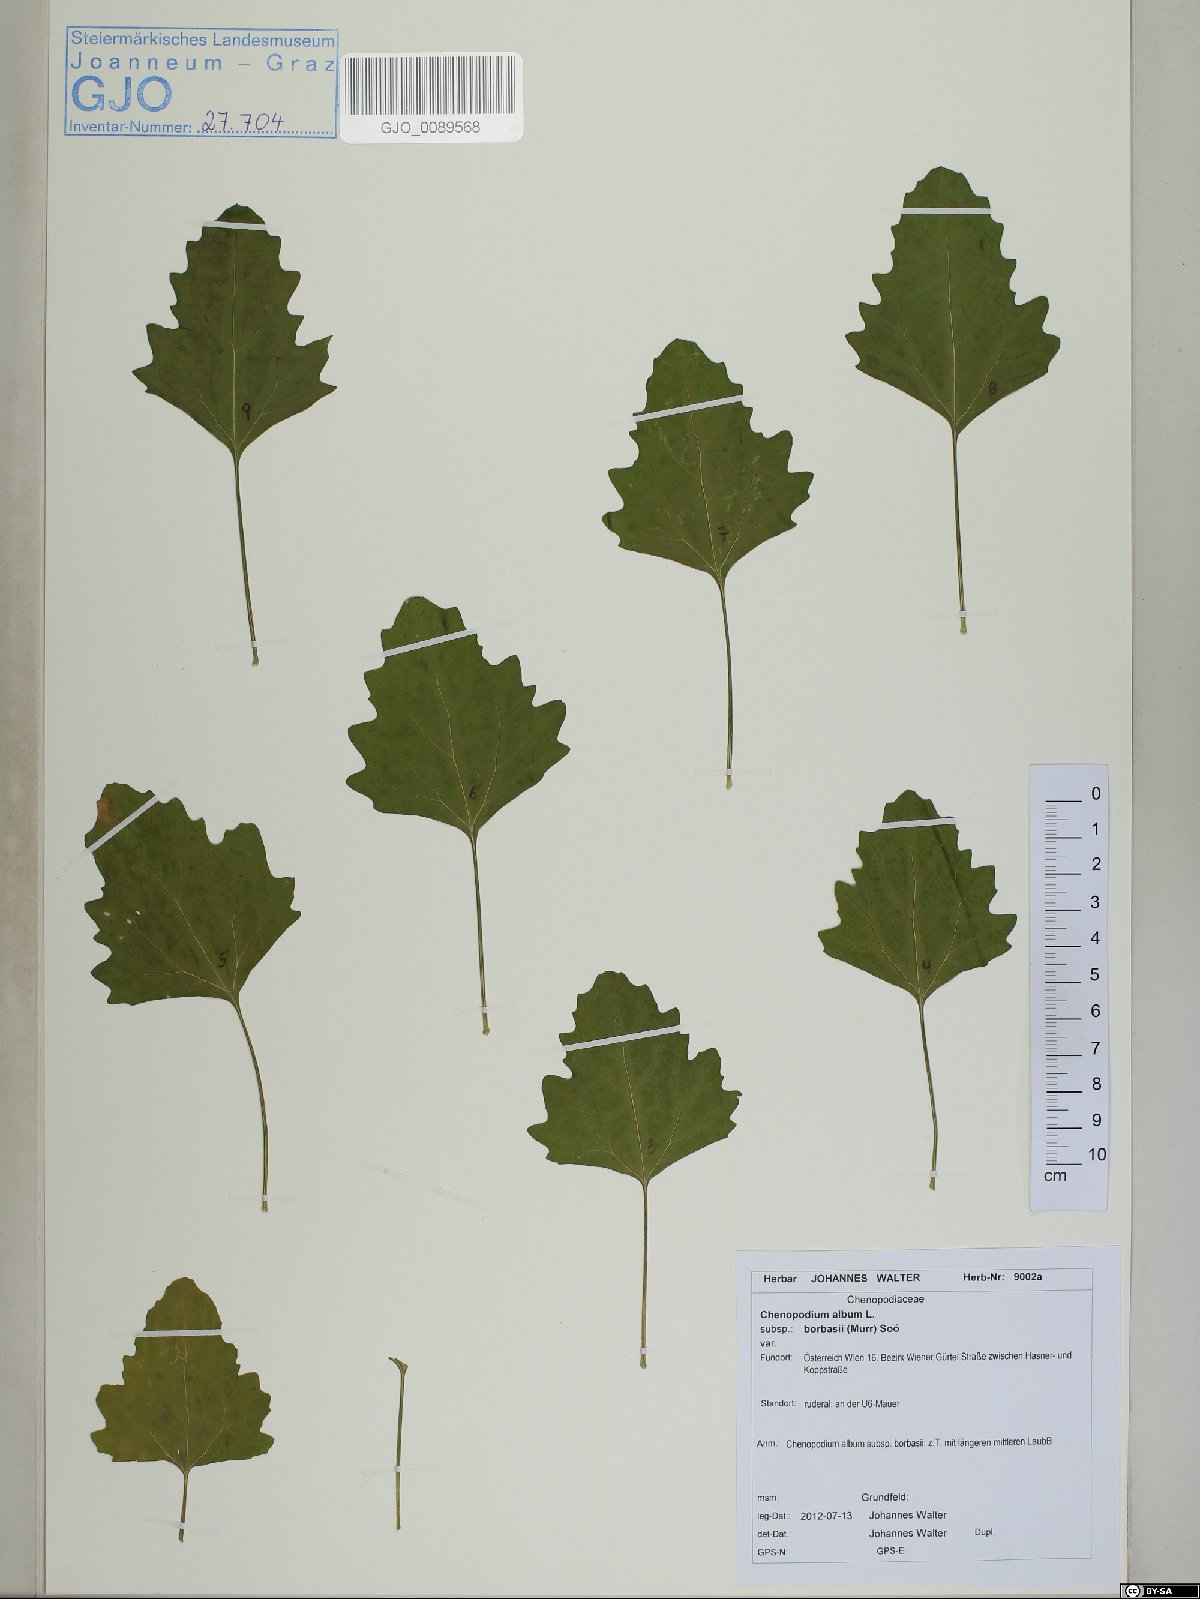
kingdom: Plantae
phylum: Tracheophyta
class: Magnoliopsida
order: Caryophyllales
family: Amaranthaceae
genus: Chenopodium
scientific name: Chenopodium borbasii
